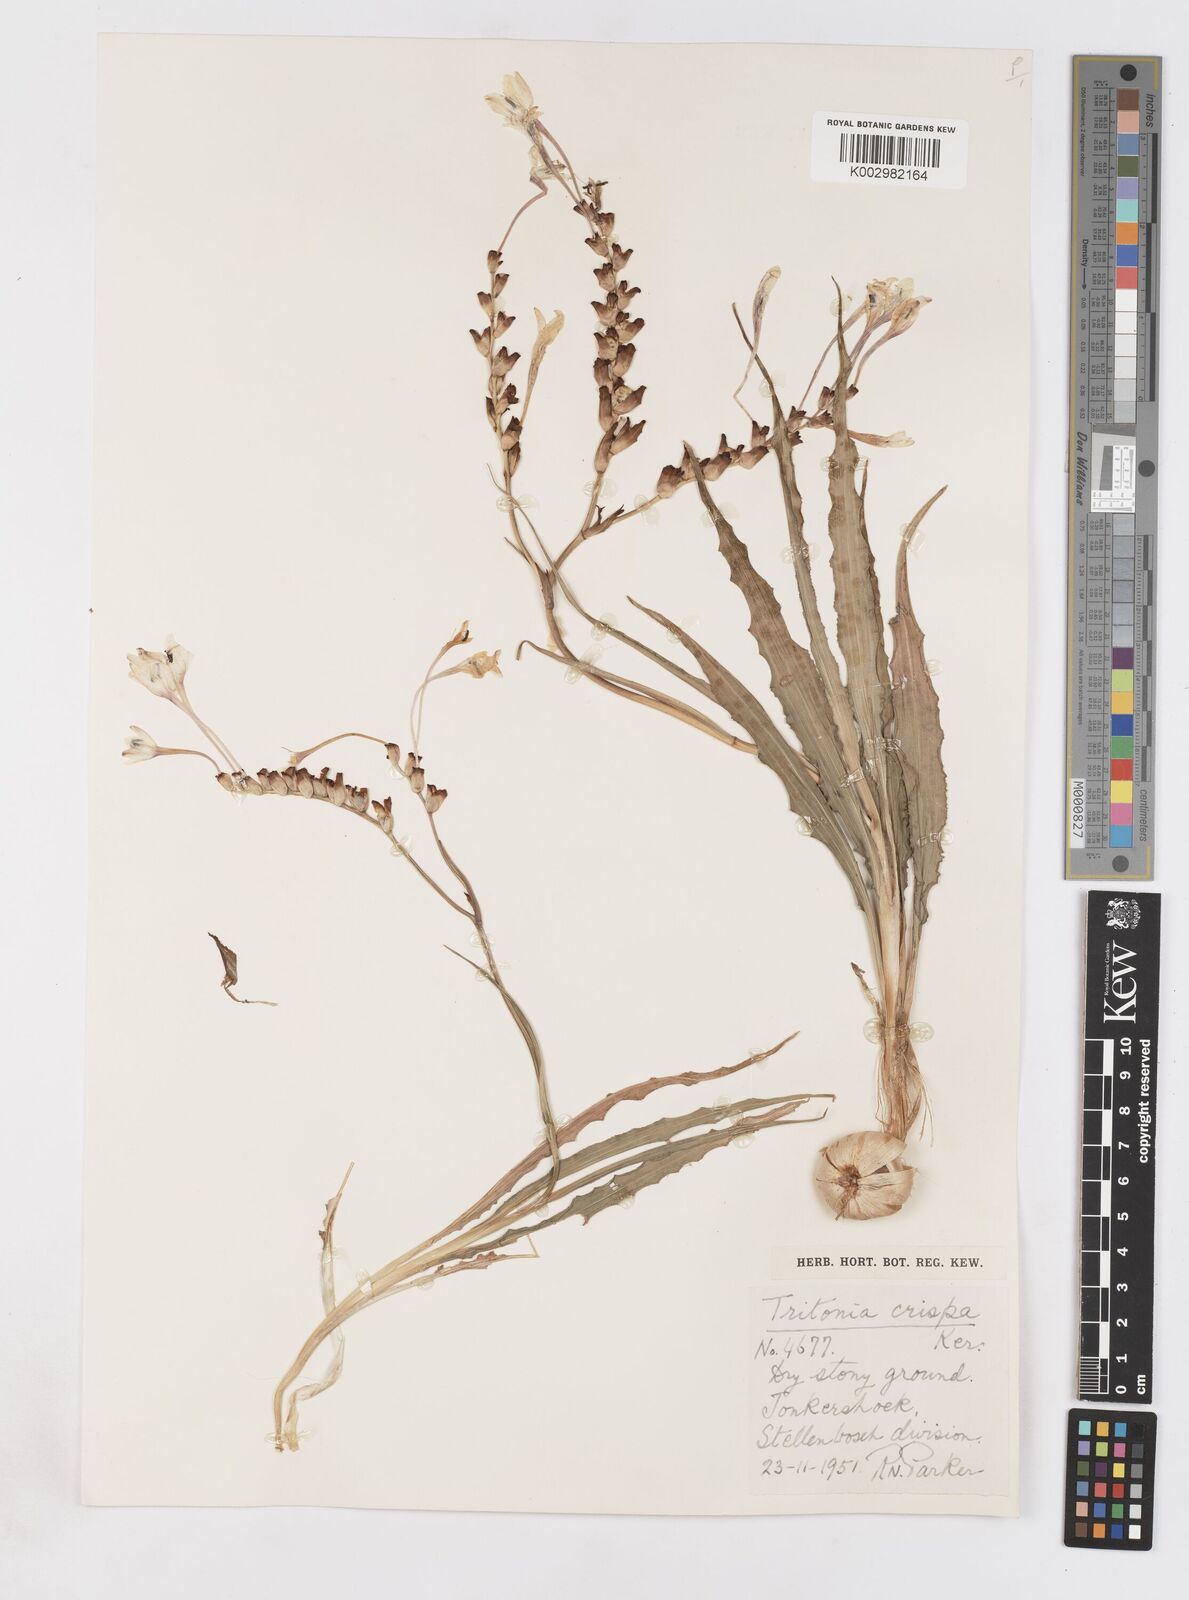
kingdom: Plantae
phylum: Tracheophyta
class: Liliopsida
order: Asparagales
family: Iridaceae
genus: Tritonia
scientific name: Tritonia undulata
